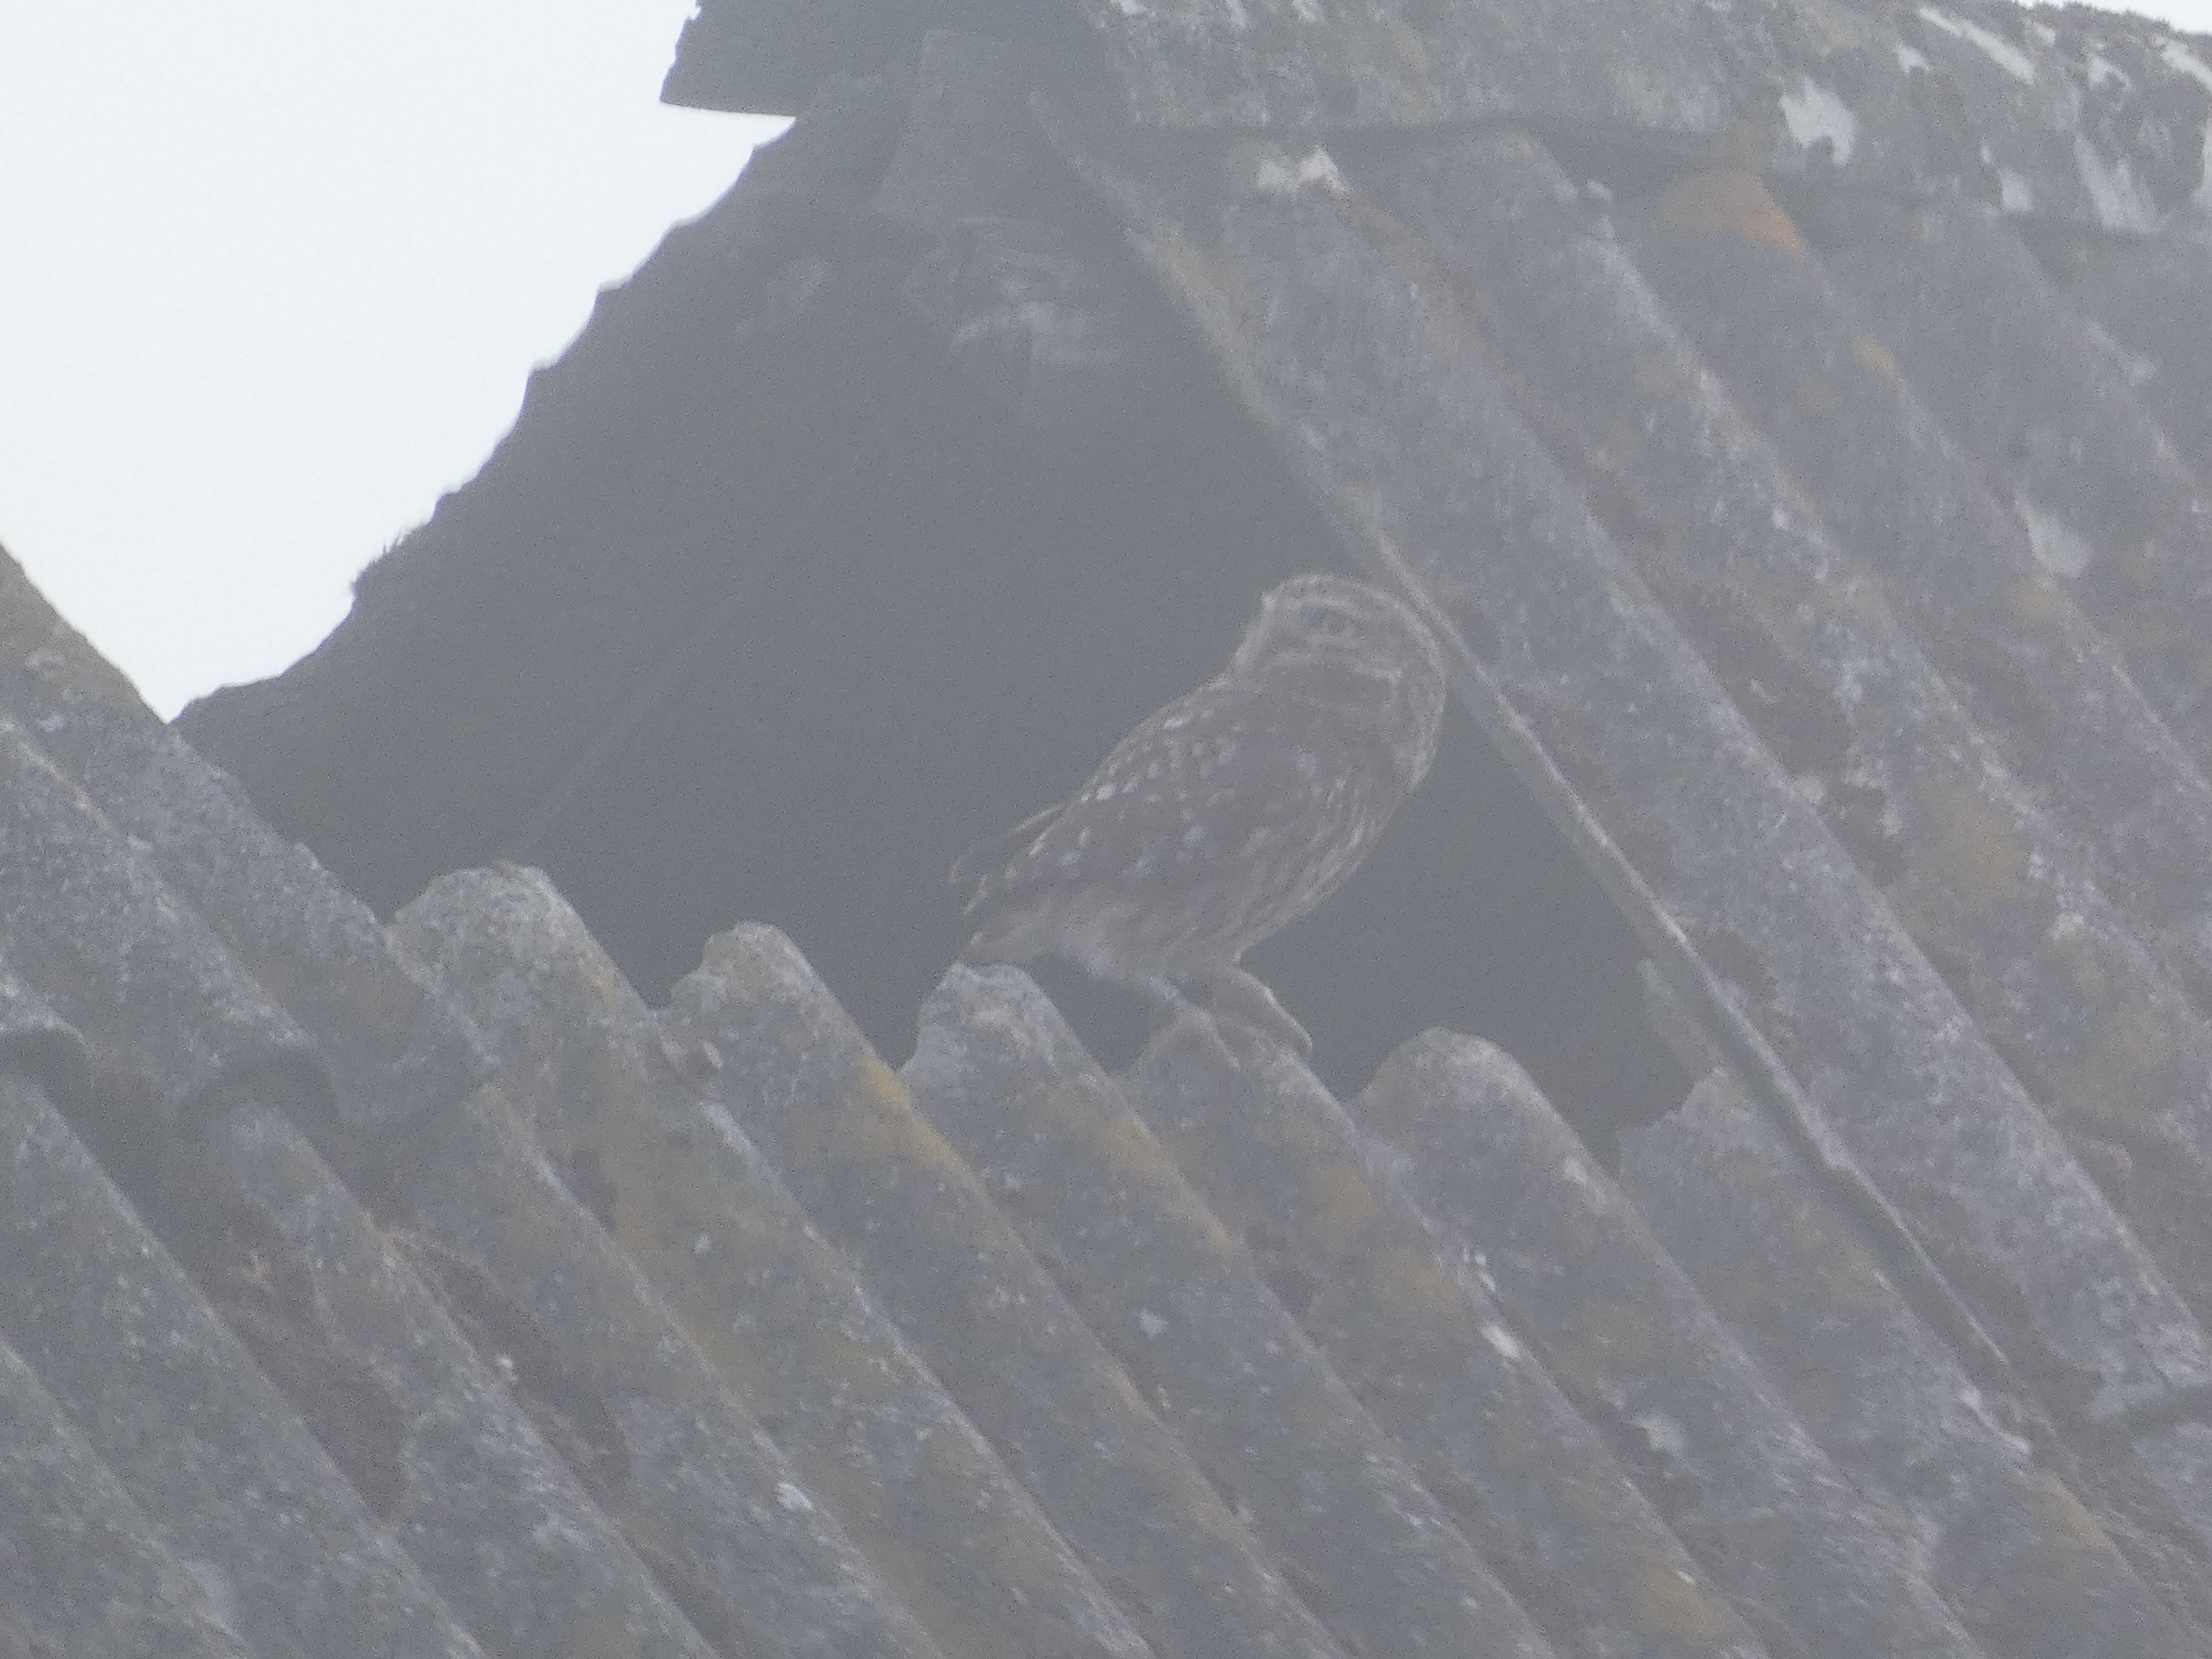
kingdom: Animalia
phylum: Chordata
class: Aves
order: Strigiformes
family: Strigidae
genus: Athene
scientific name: Athene noctua
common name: Kirkeugle
